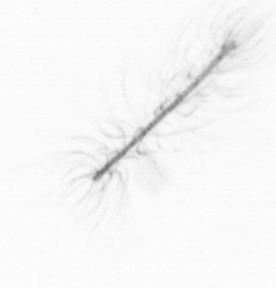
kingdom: Chromista
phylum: Ochrophyta
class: Bacillariophyceae
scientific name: Bacillariophyceae
